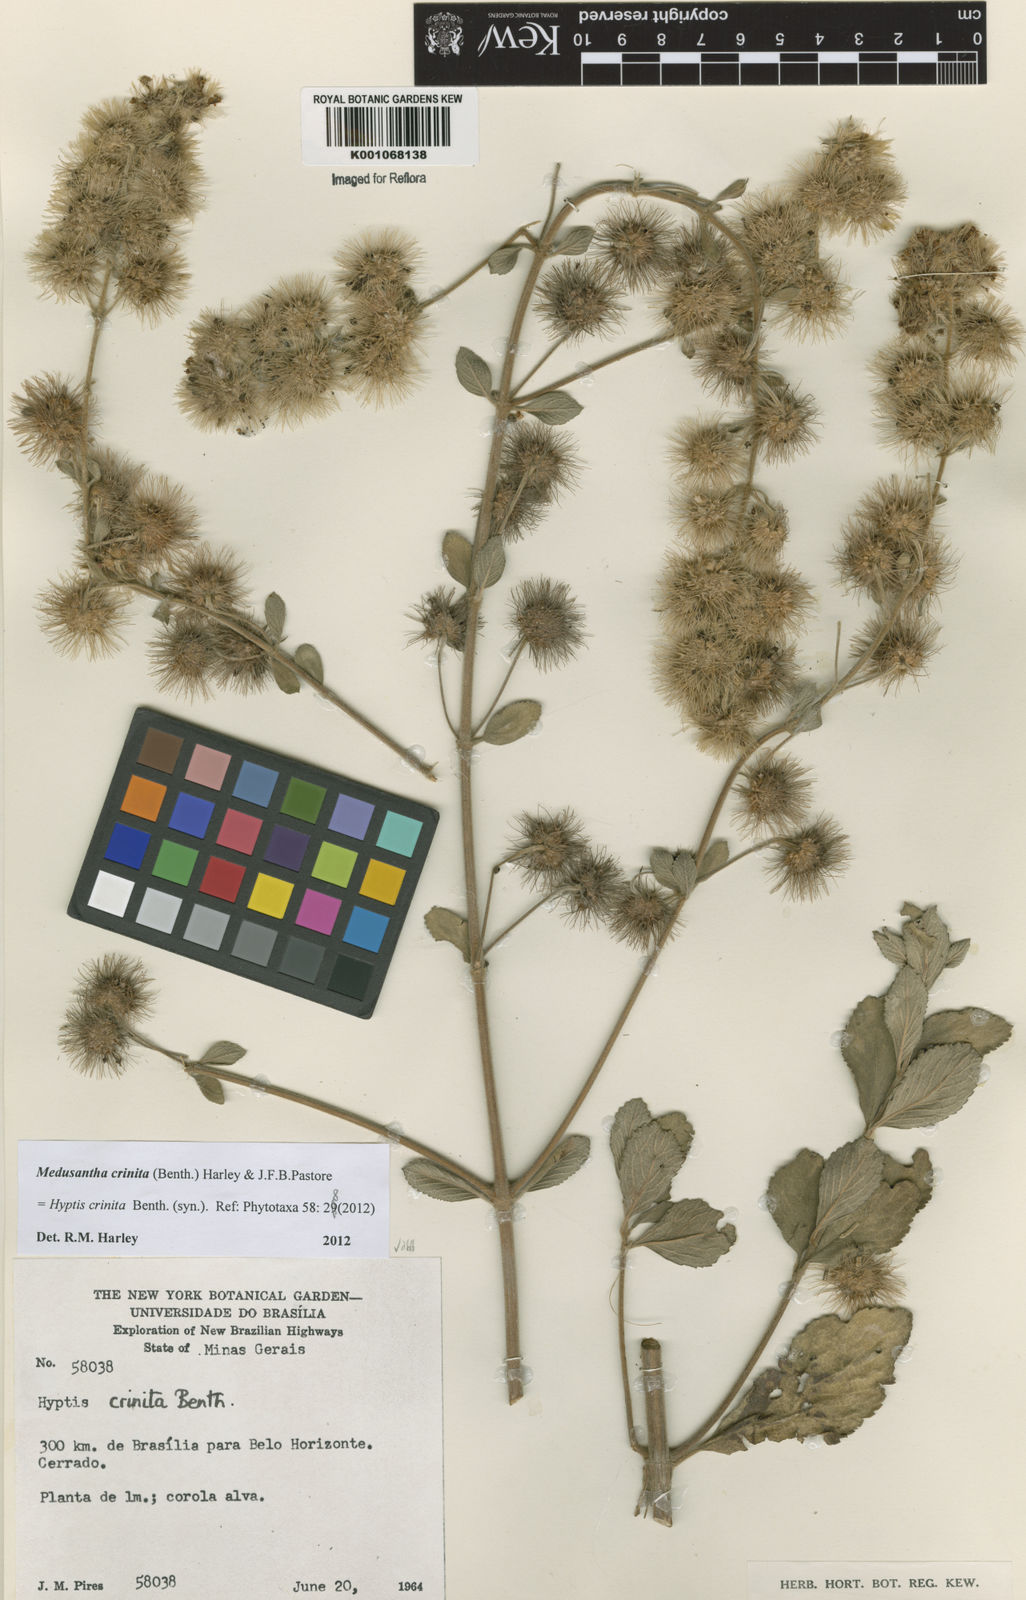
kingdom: Plantae
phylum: Tracheophyta
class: Magnoliopsida
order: Lamiales
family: Lamiaceae
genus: Medusantha
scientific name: Medusantha crinita
